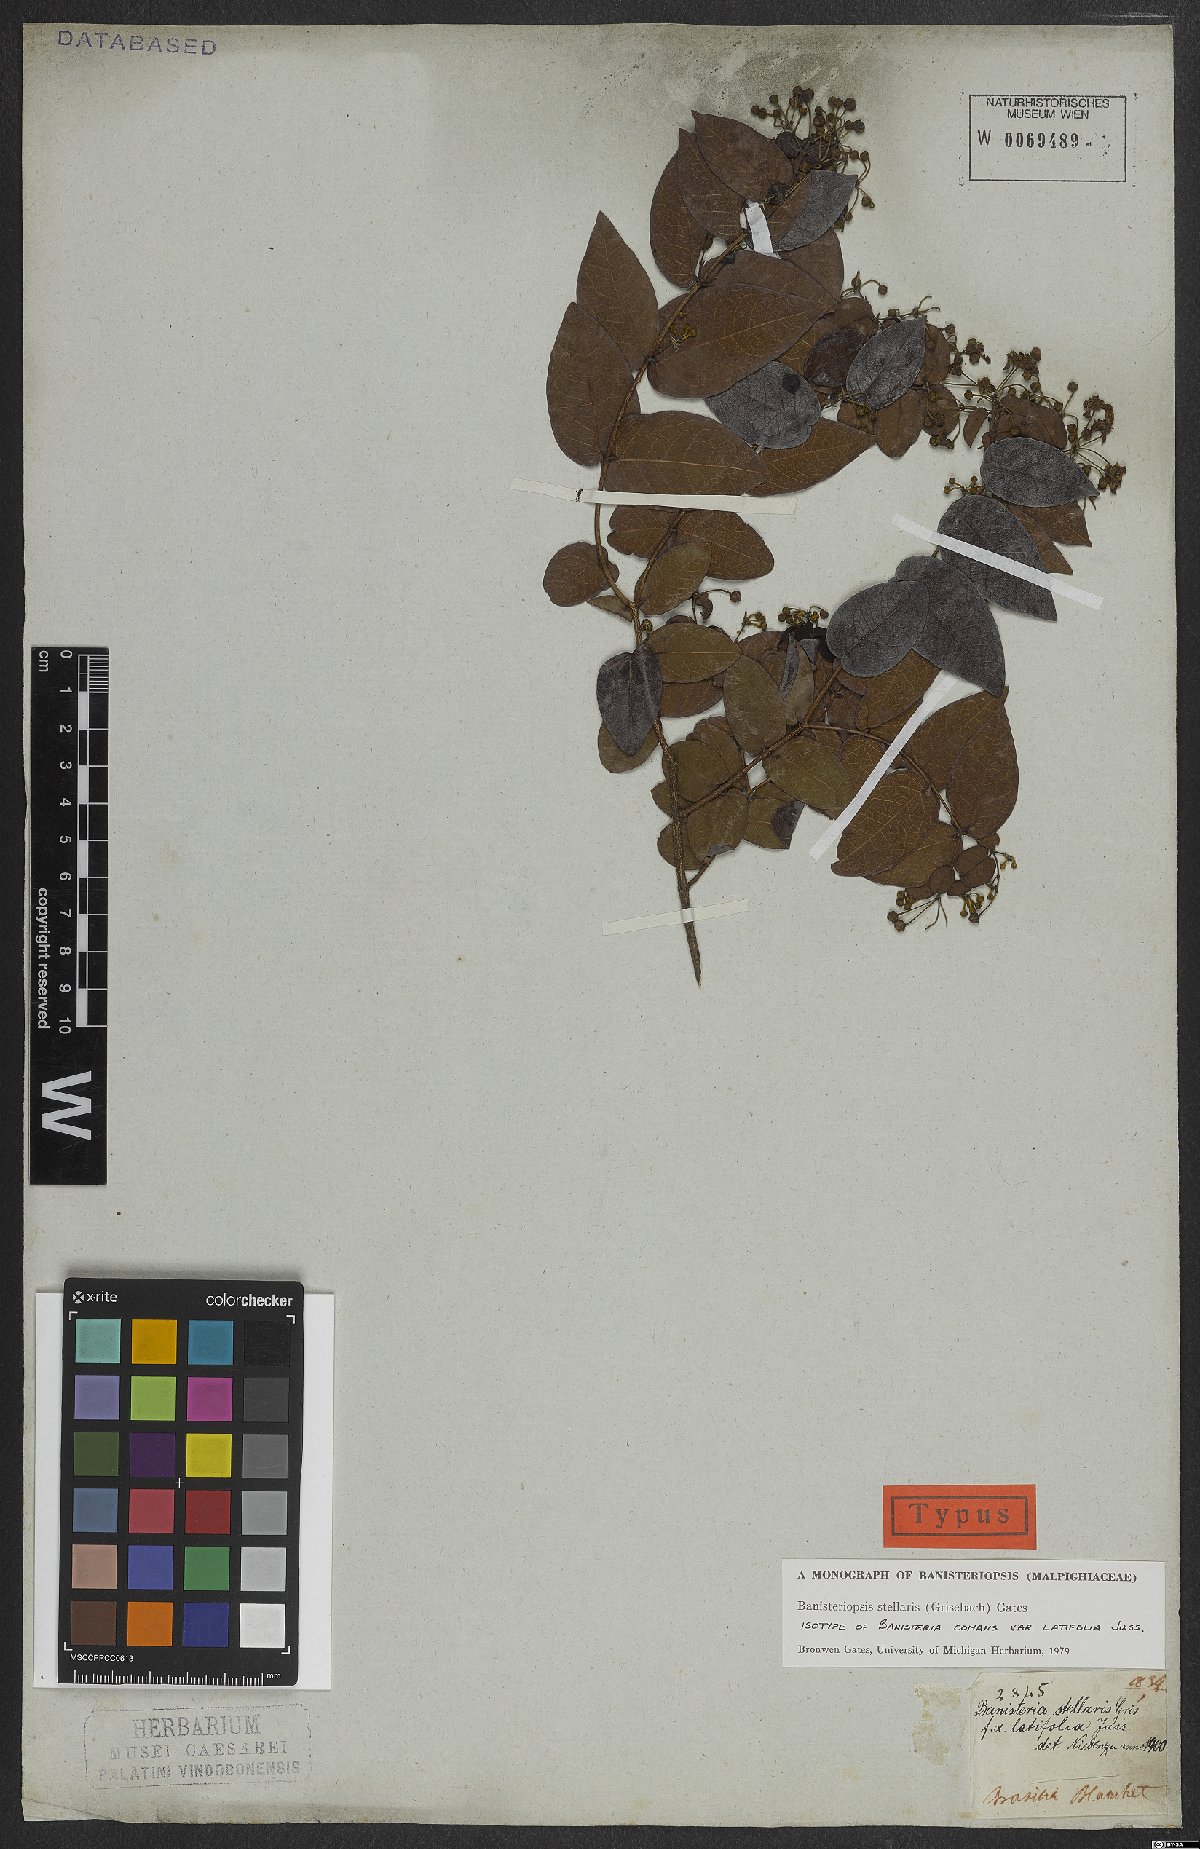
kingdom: Plantae
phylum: Tracheophyta
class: Magnoliopsida
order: Malpighiales
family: Malpighiaceae
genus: Banisteriopsis
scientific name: Banisteriopsis stellaris
